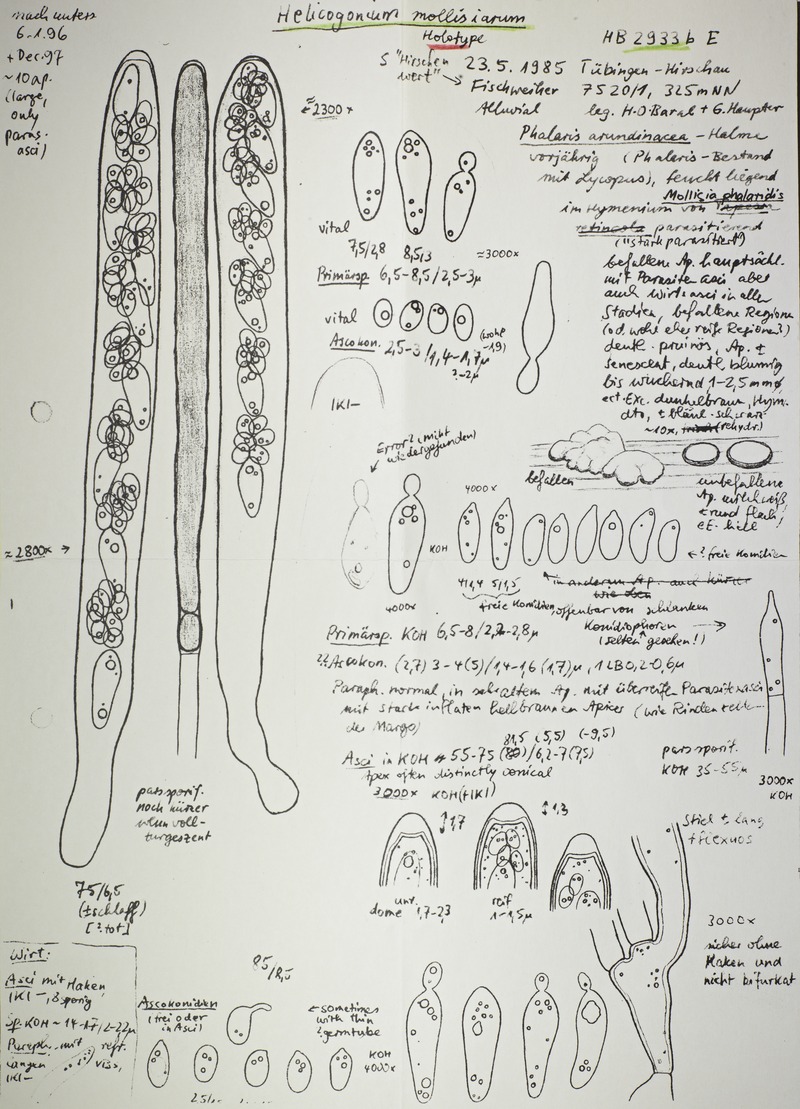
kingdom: Fungi
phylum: Ascomycota
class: Leotiomycetes
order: Phacidiales
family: Helicogoniaceae
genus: Helicogonium
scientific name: Helicogonium mollisiophilum
